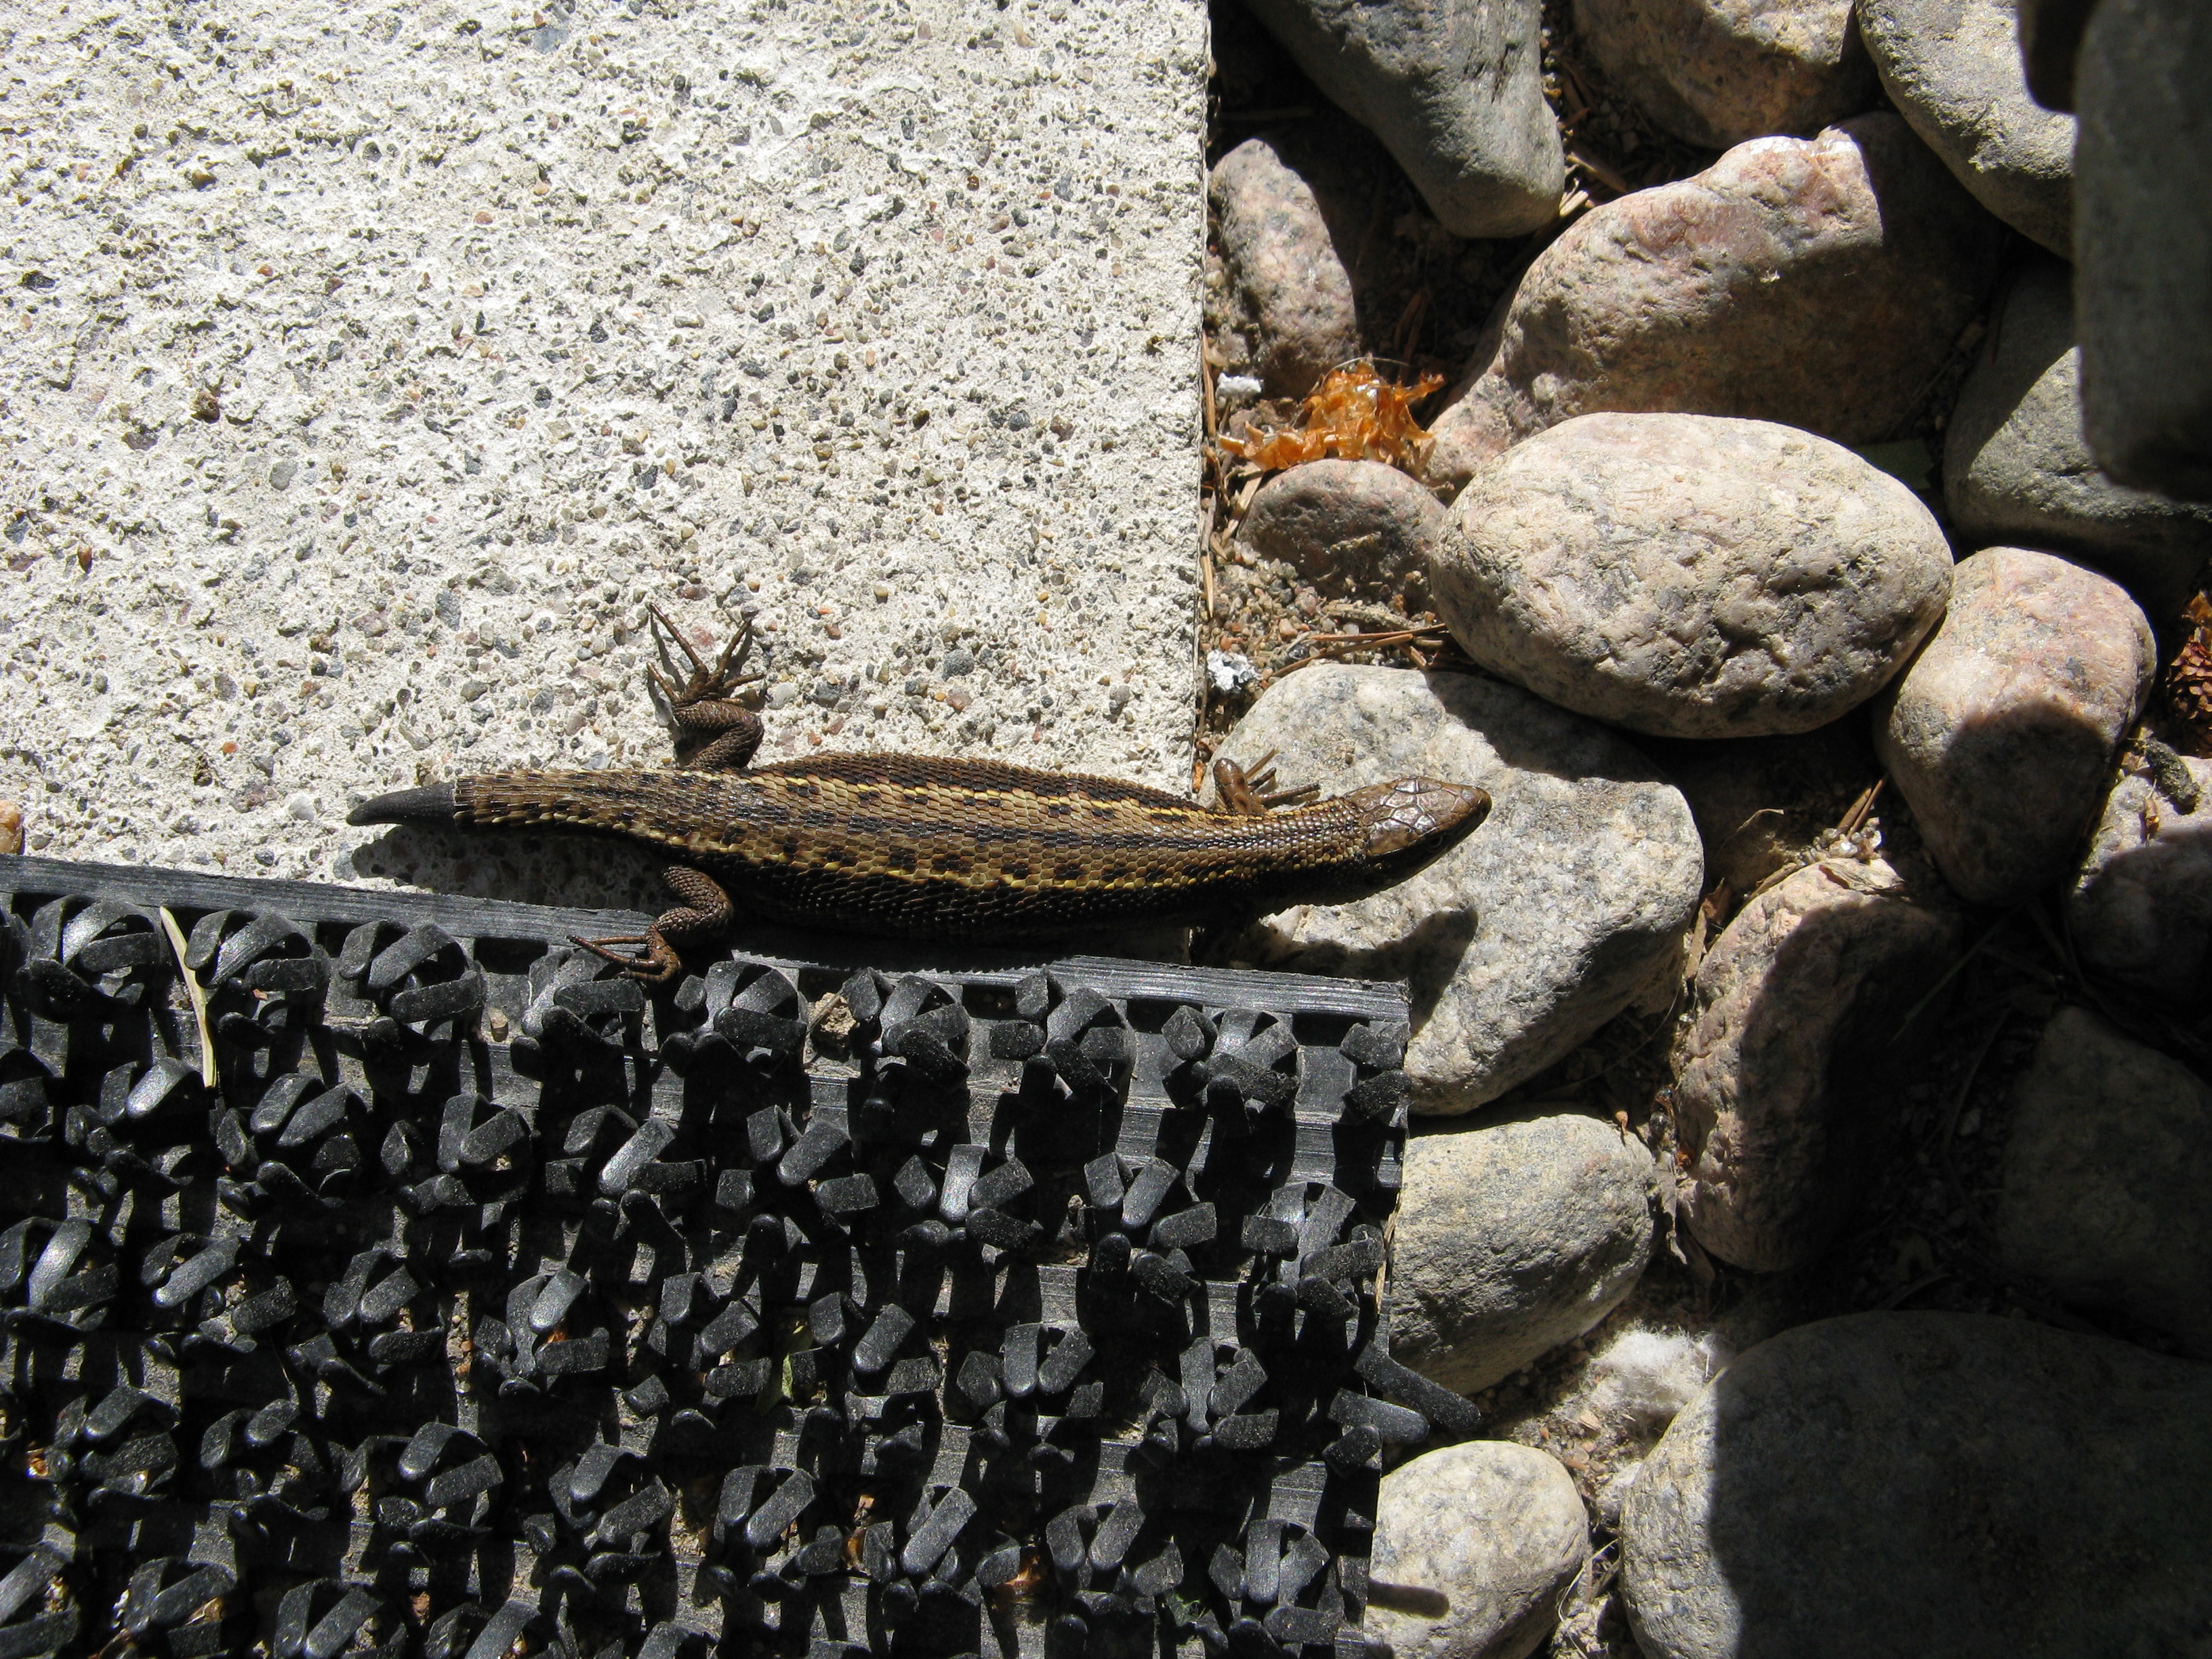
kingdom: Animalia
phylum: Chordata
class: Squamata
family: Lacertidae
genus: Zootoca
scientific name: Zootoca vivipara
